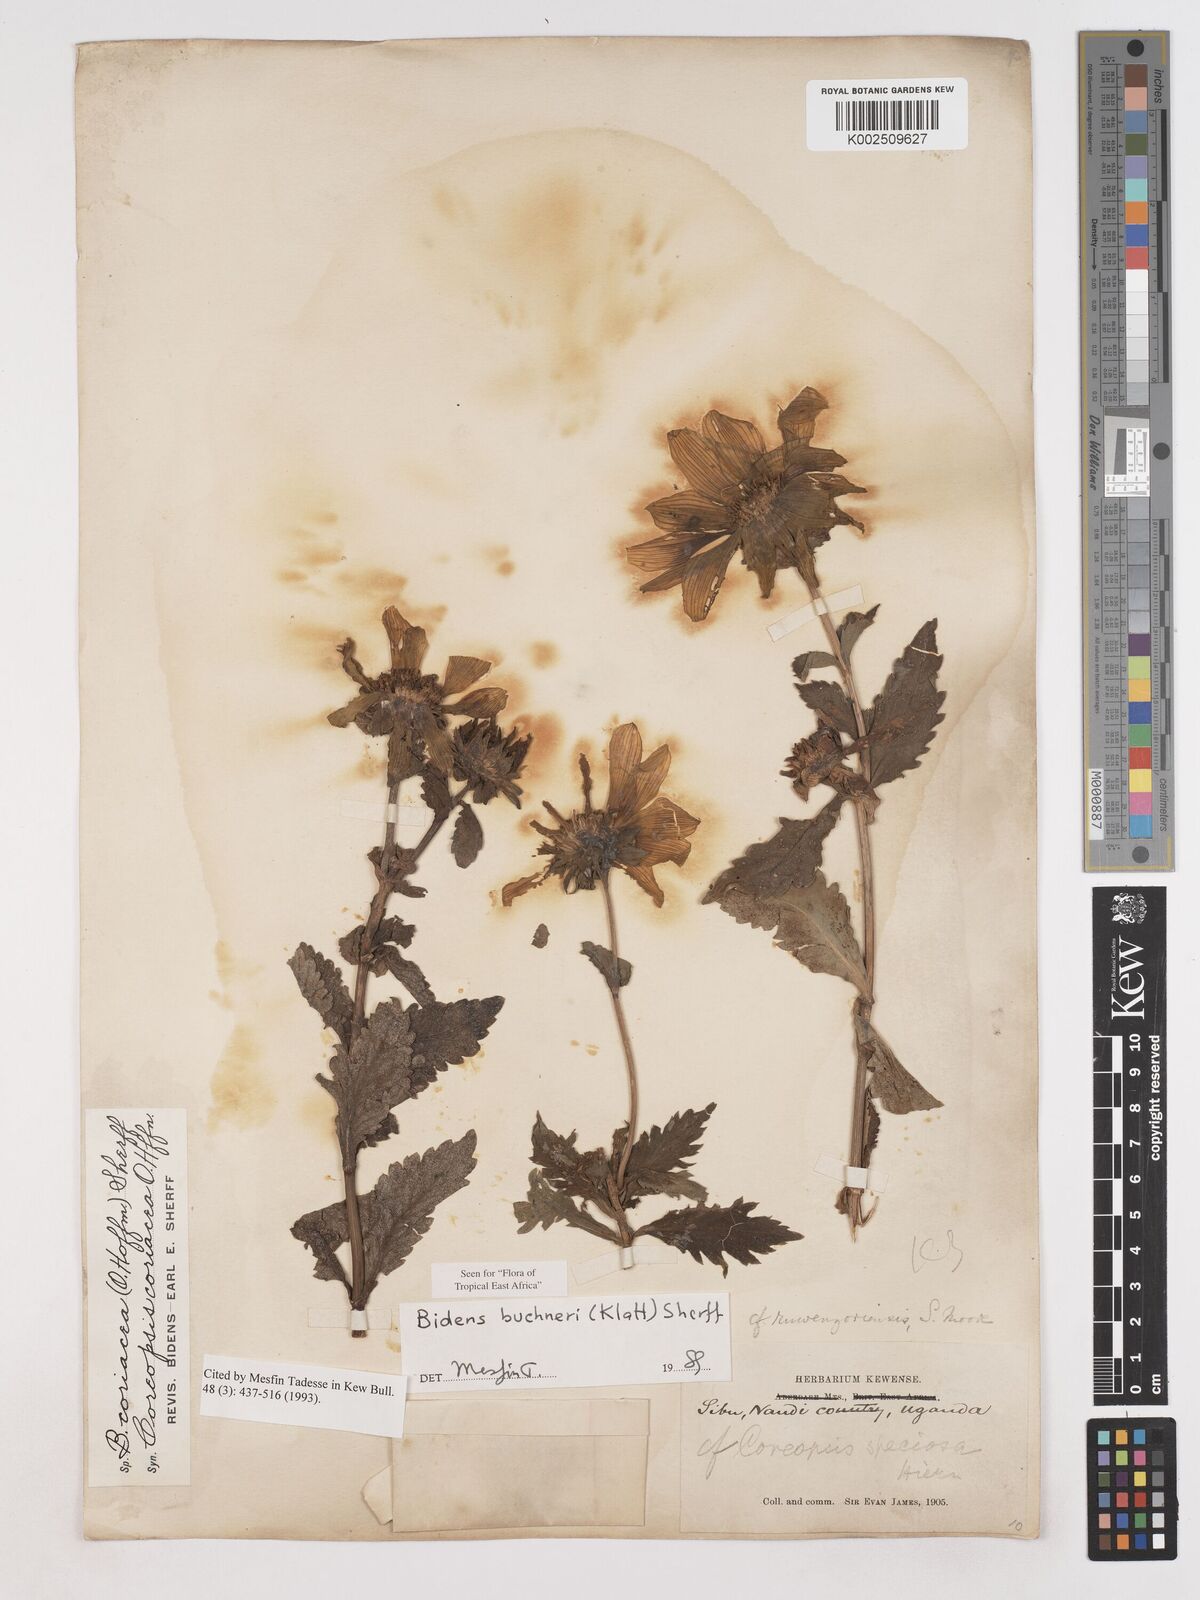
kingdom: Plantae
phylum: Tracheophyta
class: Magnoliopsida
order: Asterales
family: Asteraceae
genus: Bidens
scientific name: Bidens buchneri
